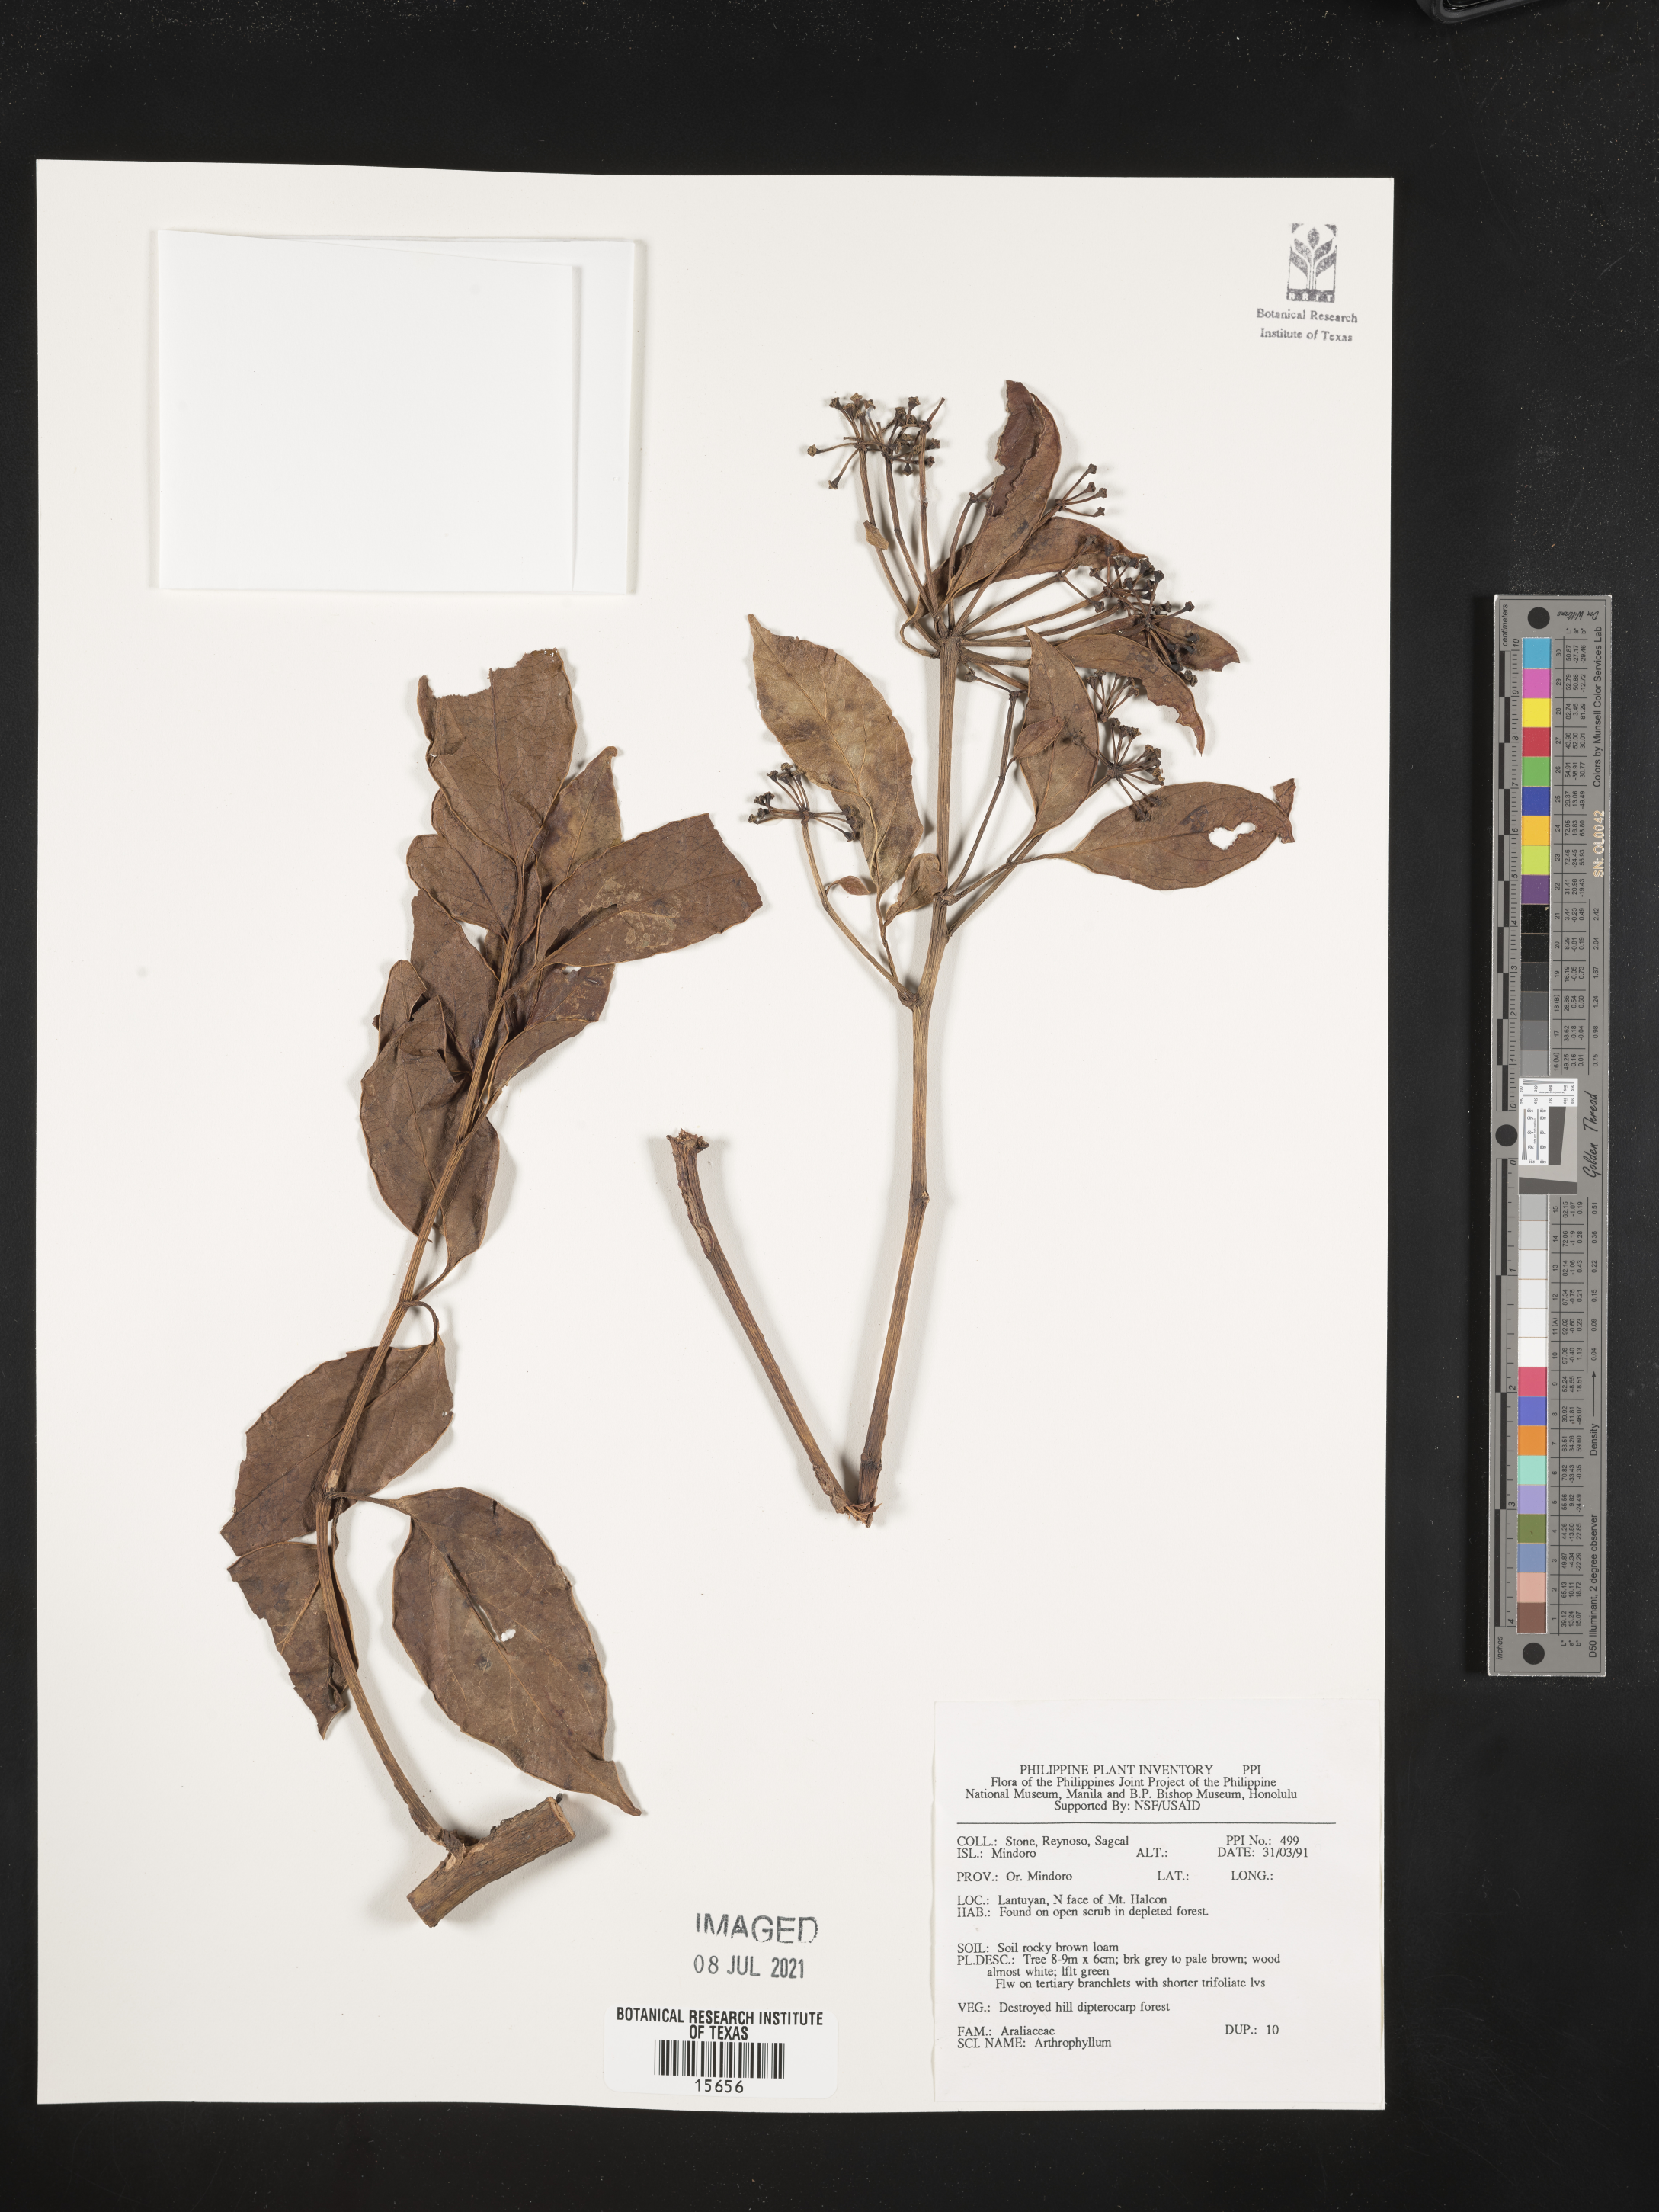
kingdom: Plantae
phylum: Tracheophyta
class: Magnoliopsida
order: Lamiales
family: Bignoniaceae
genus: Arthrophyllum
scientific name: Arthrophyllum
